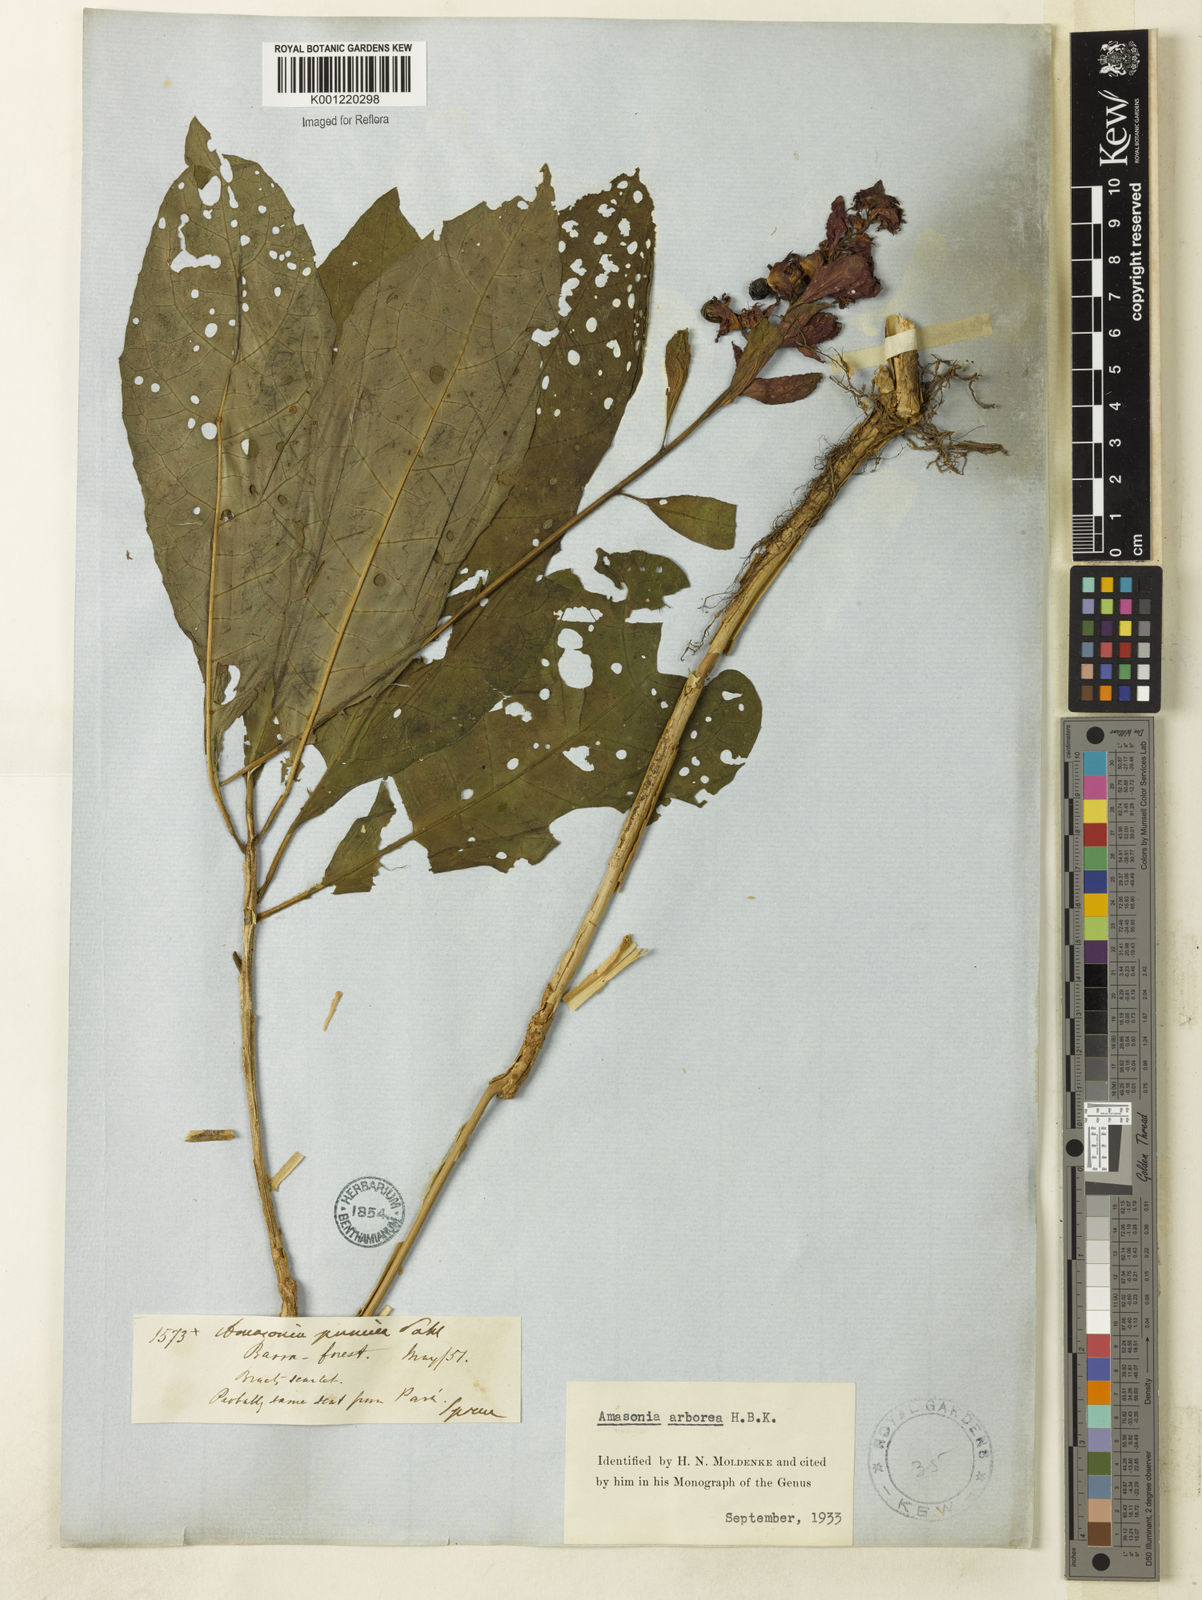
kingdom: Plantae
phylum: Tracheophyta
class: Magnoliopsida
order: Lamiales
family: Lamiaceae
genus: Amasonia
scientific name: Amasonia arborea
